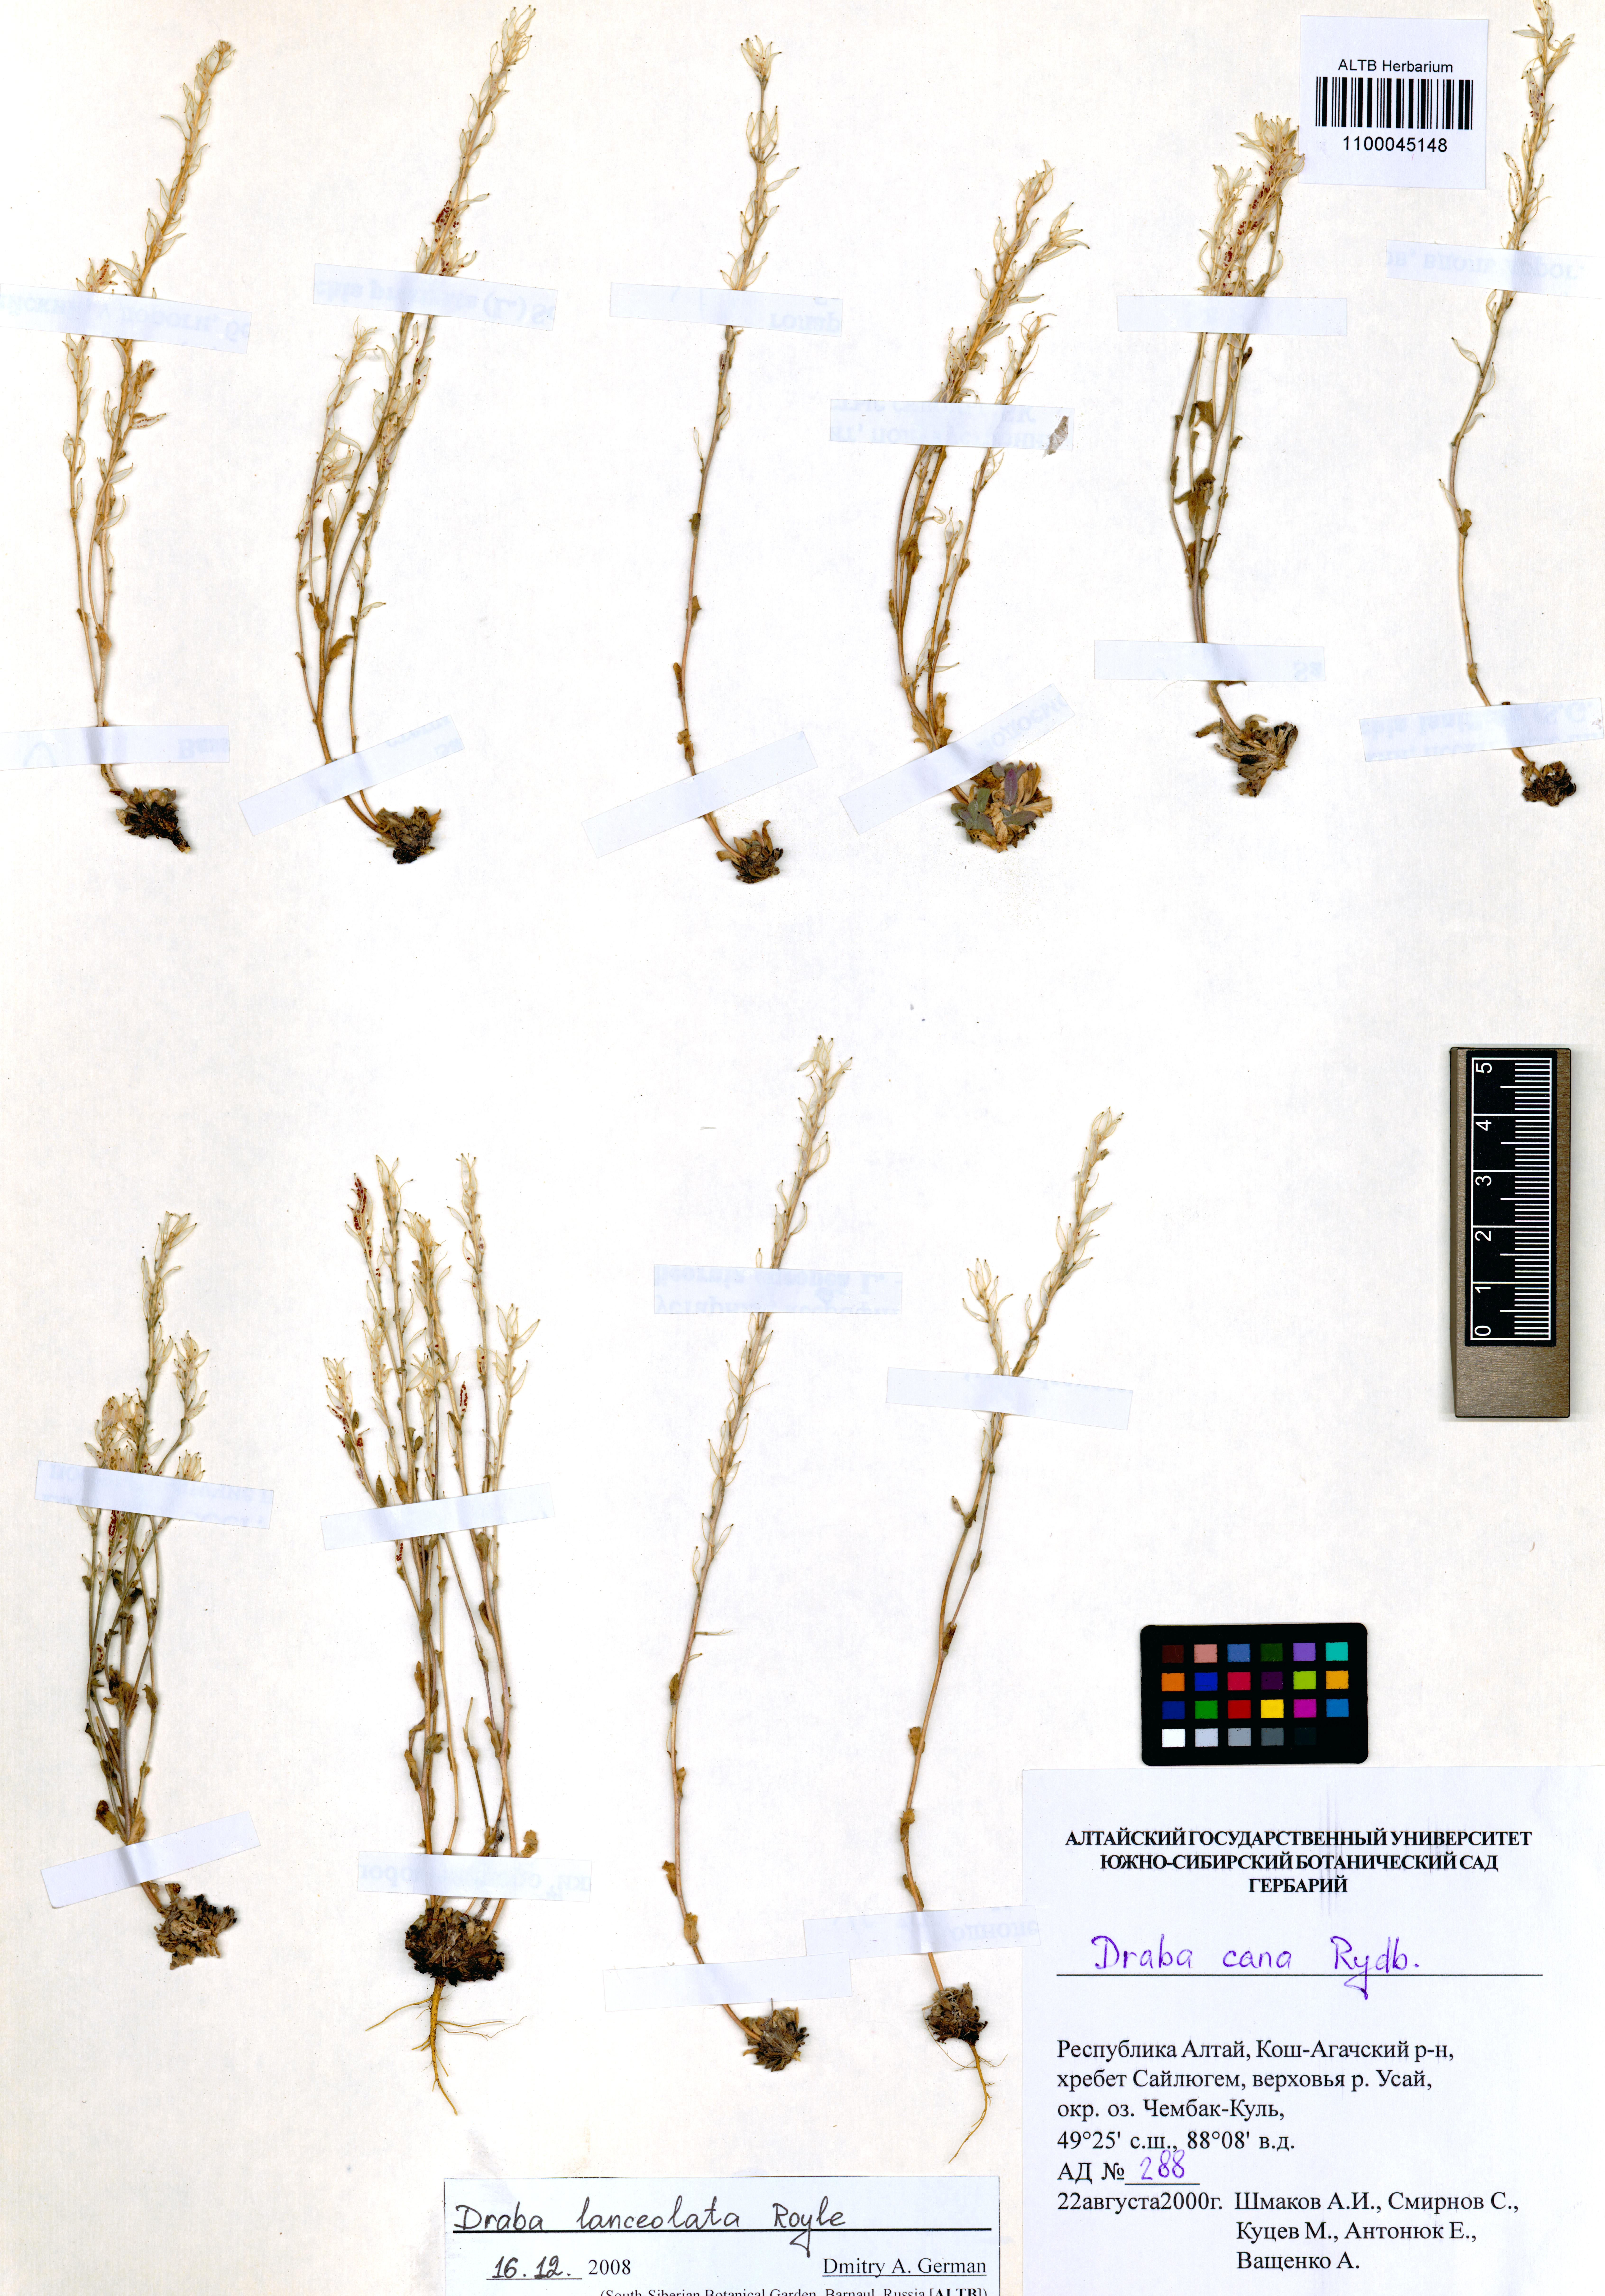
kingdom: Plantae
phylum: Tracheophyta
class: Magnoliopsida
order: Brassicales
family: Brassicaceae
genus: Draba
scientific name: Draba lanceolata
